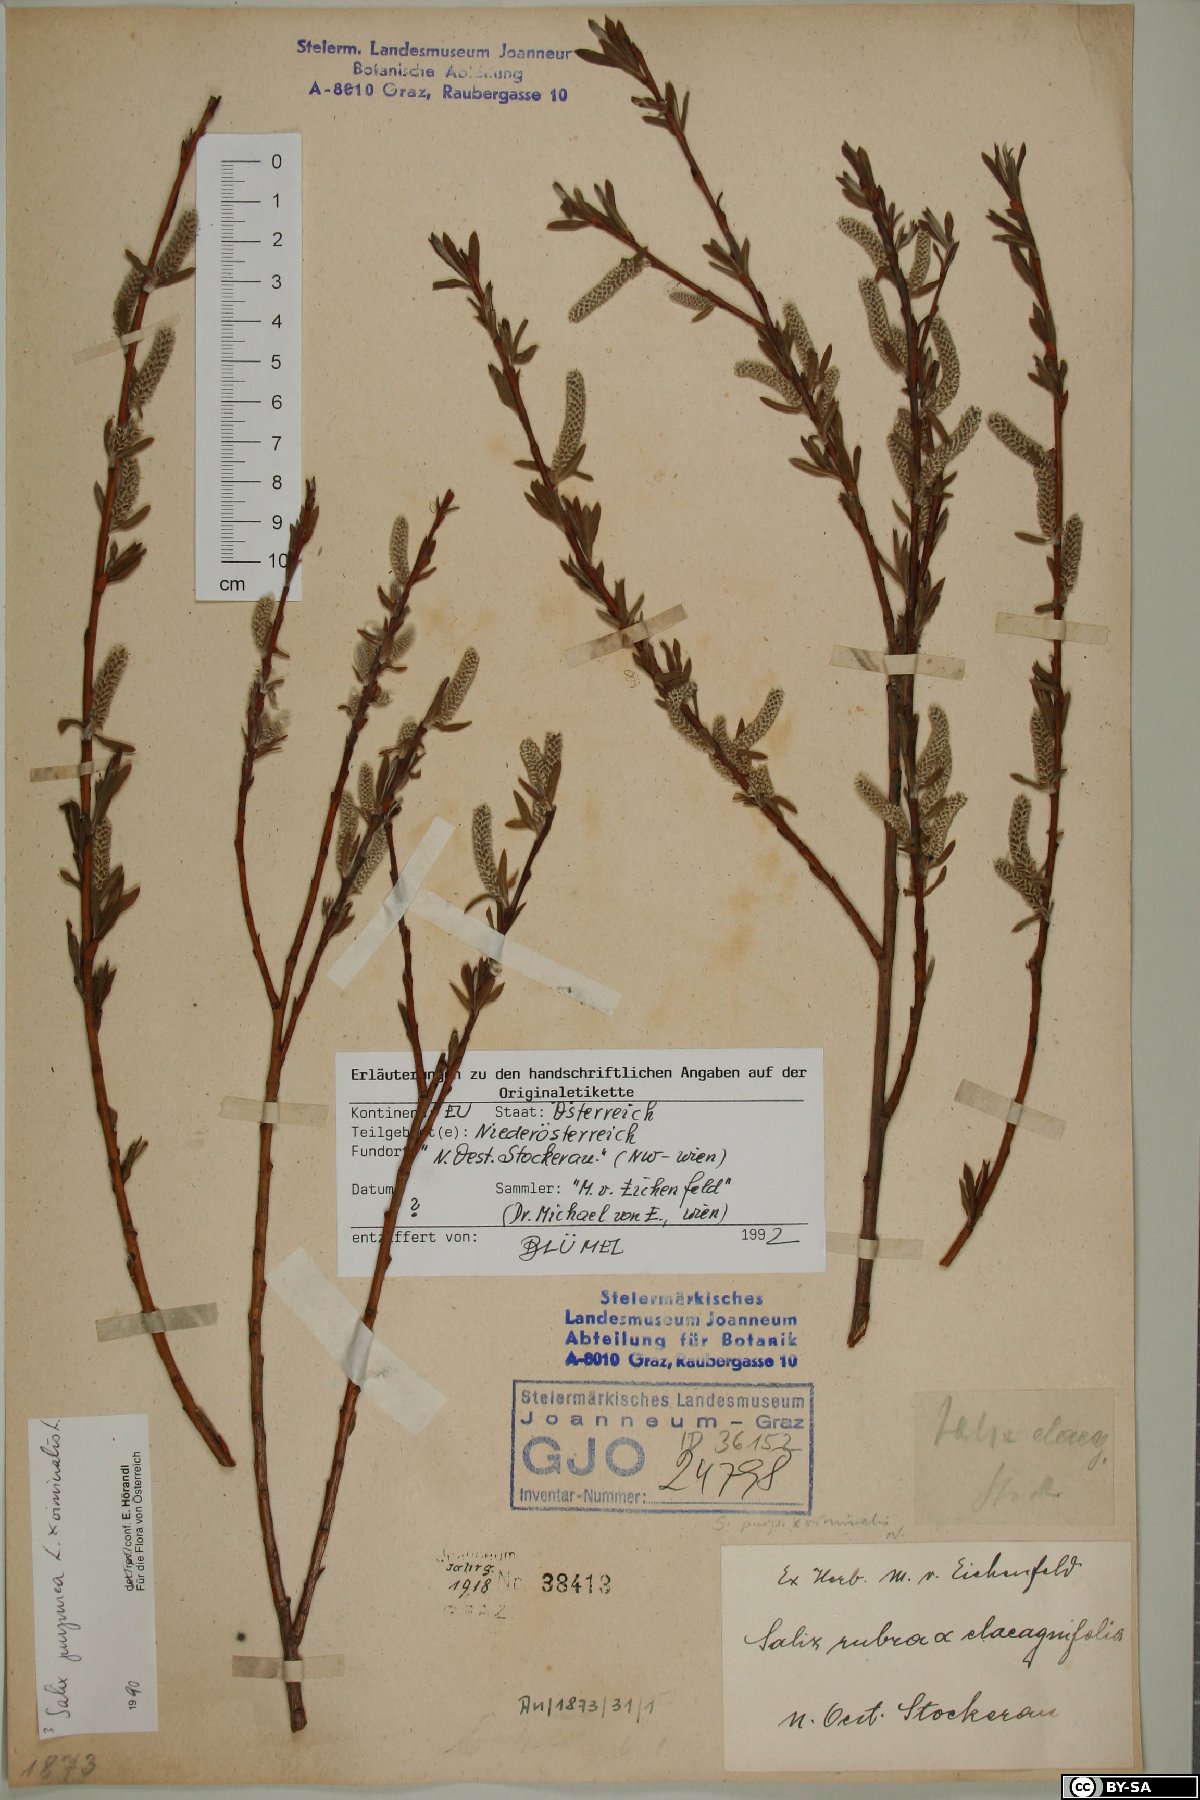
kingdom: Plantae
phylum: Tracheophyta
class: Magnoliopsida
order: Malpighiales
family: Salicaceae
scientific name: Salicaceae
